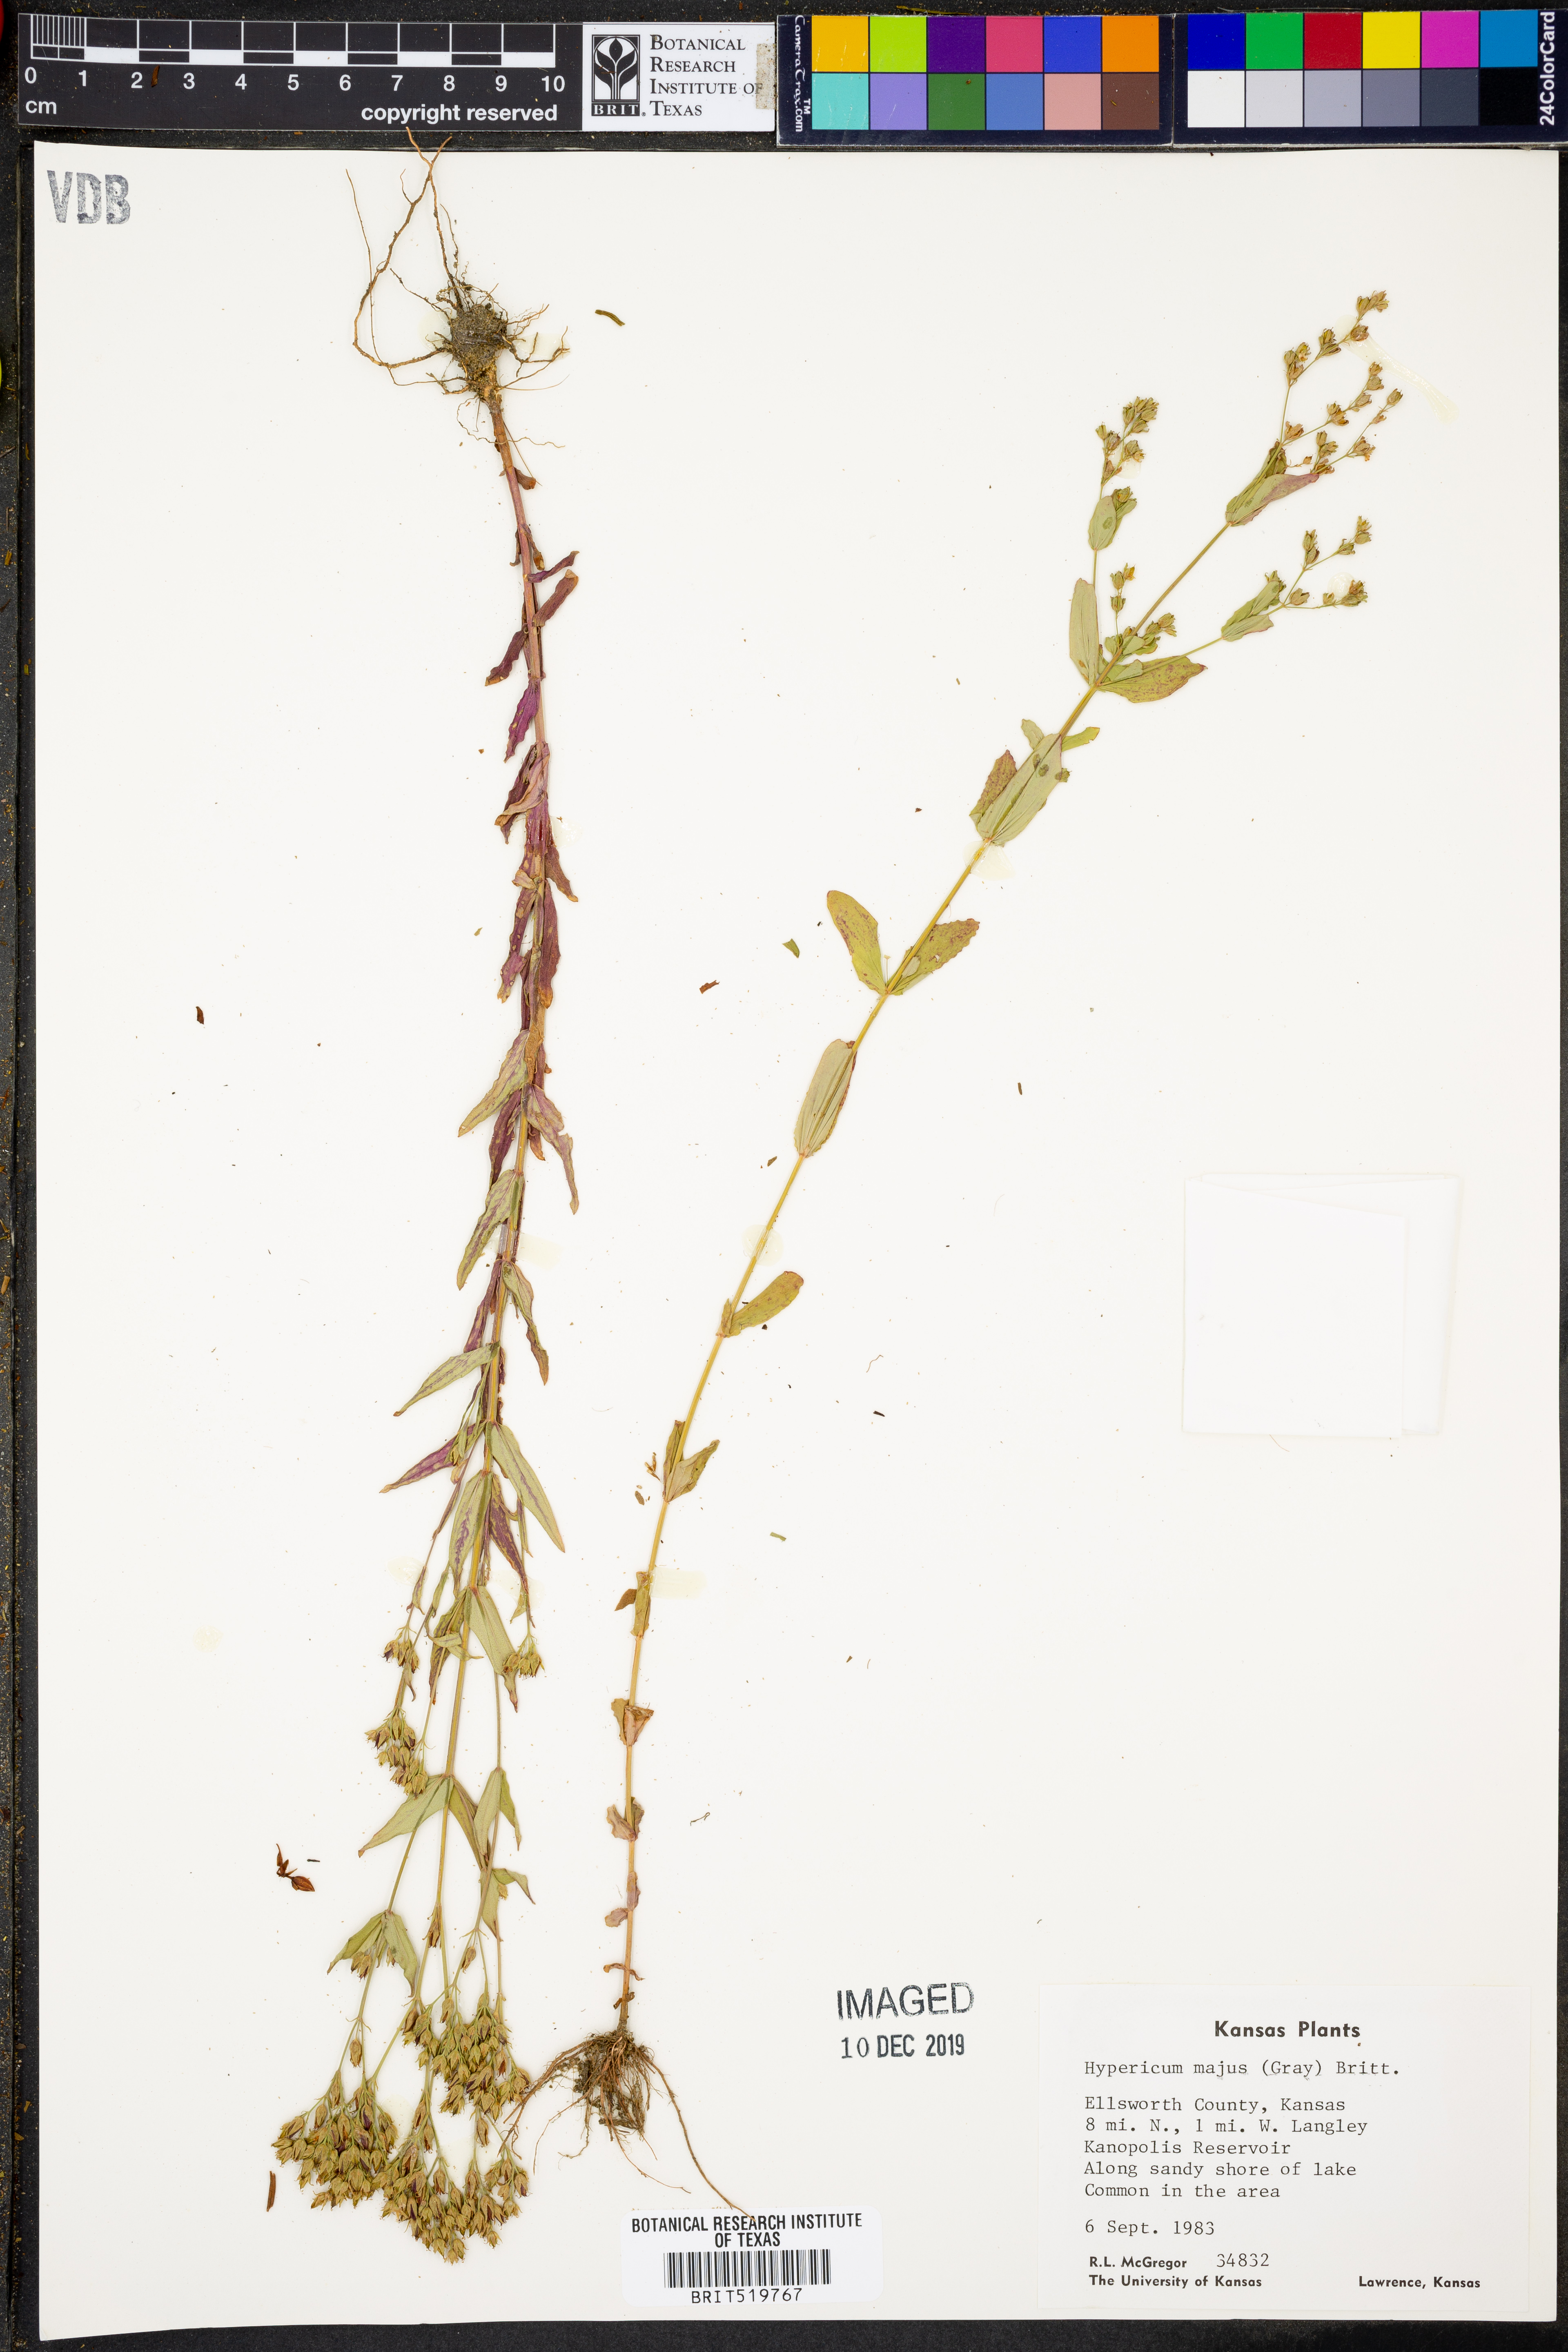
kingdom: Plantae
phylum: Tracheophyta
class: Magnoliopsida
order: Malpighiales
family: Hypericaceae
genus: Hypericum
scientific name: Hypericum majus
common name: Greater canadian st. john's-wort
